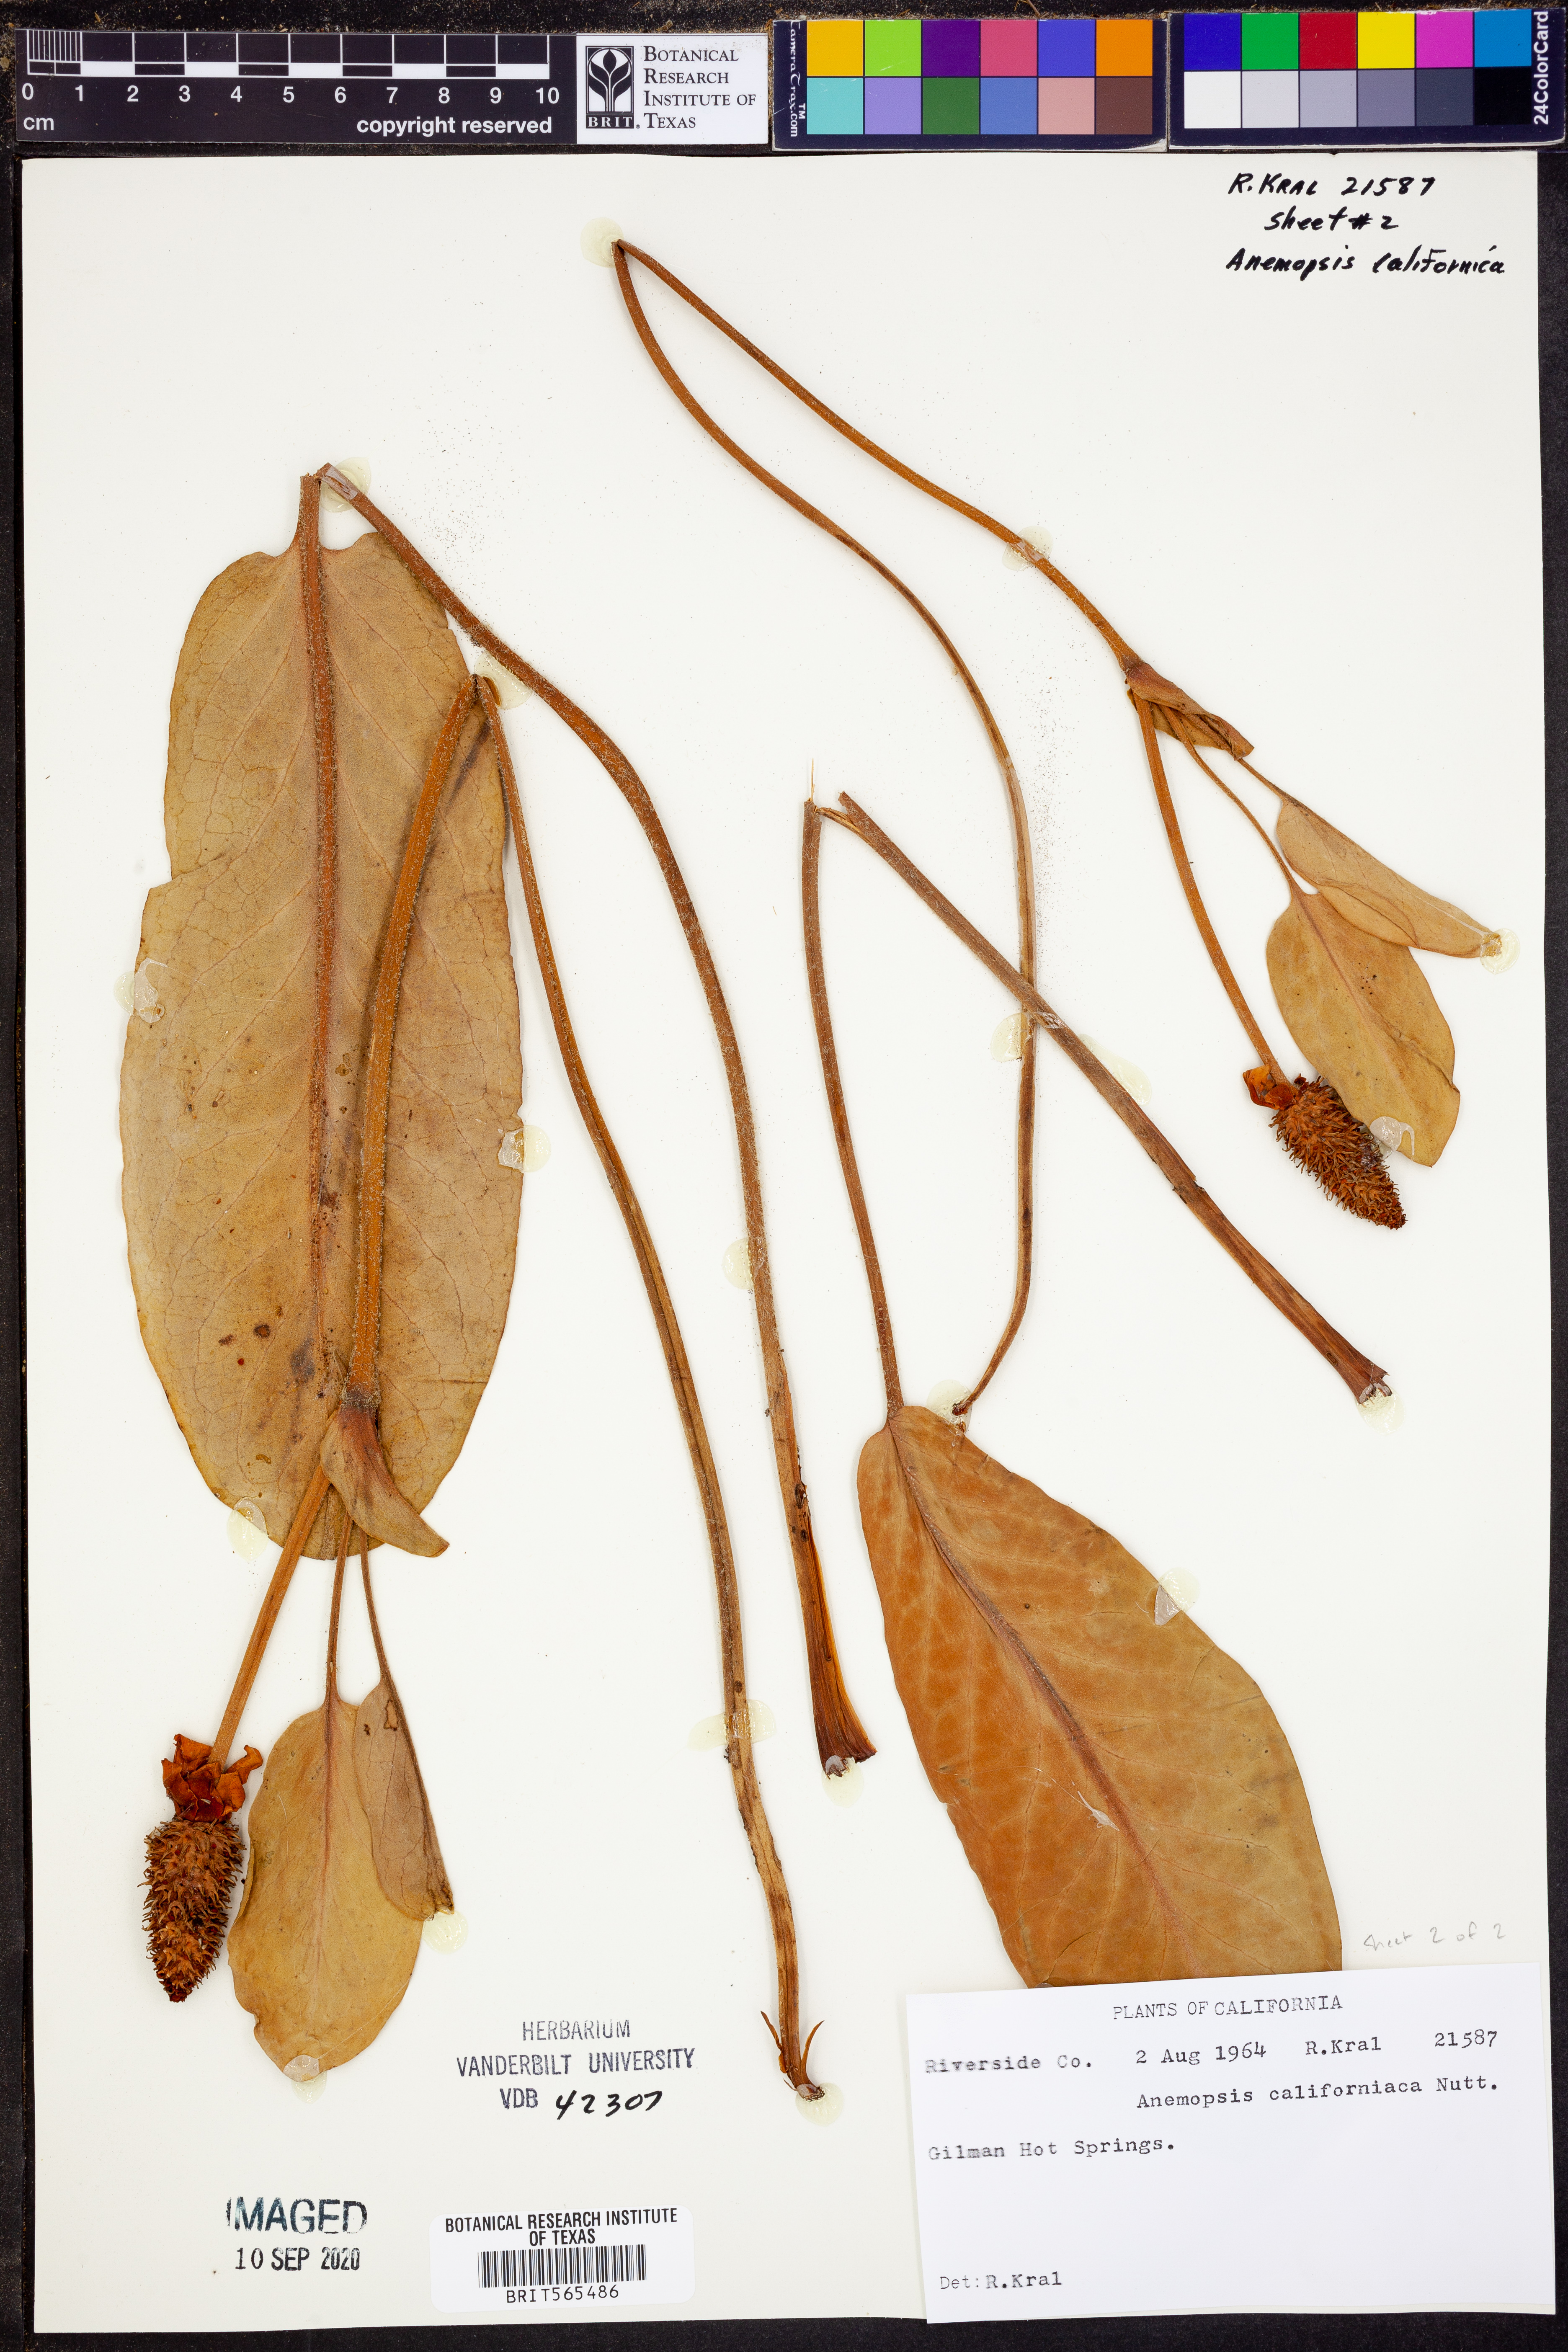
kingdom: Plantae
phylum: Tracheophyta
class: Magnoliopsida
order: Piperales
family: Saururaceae
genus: Anemopsis
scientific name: Anemopsis californica
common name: Apache-beads
